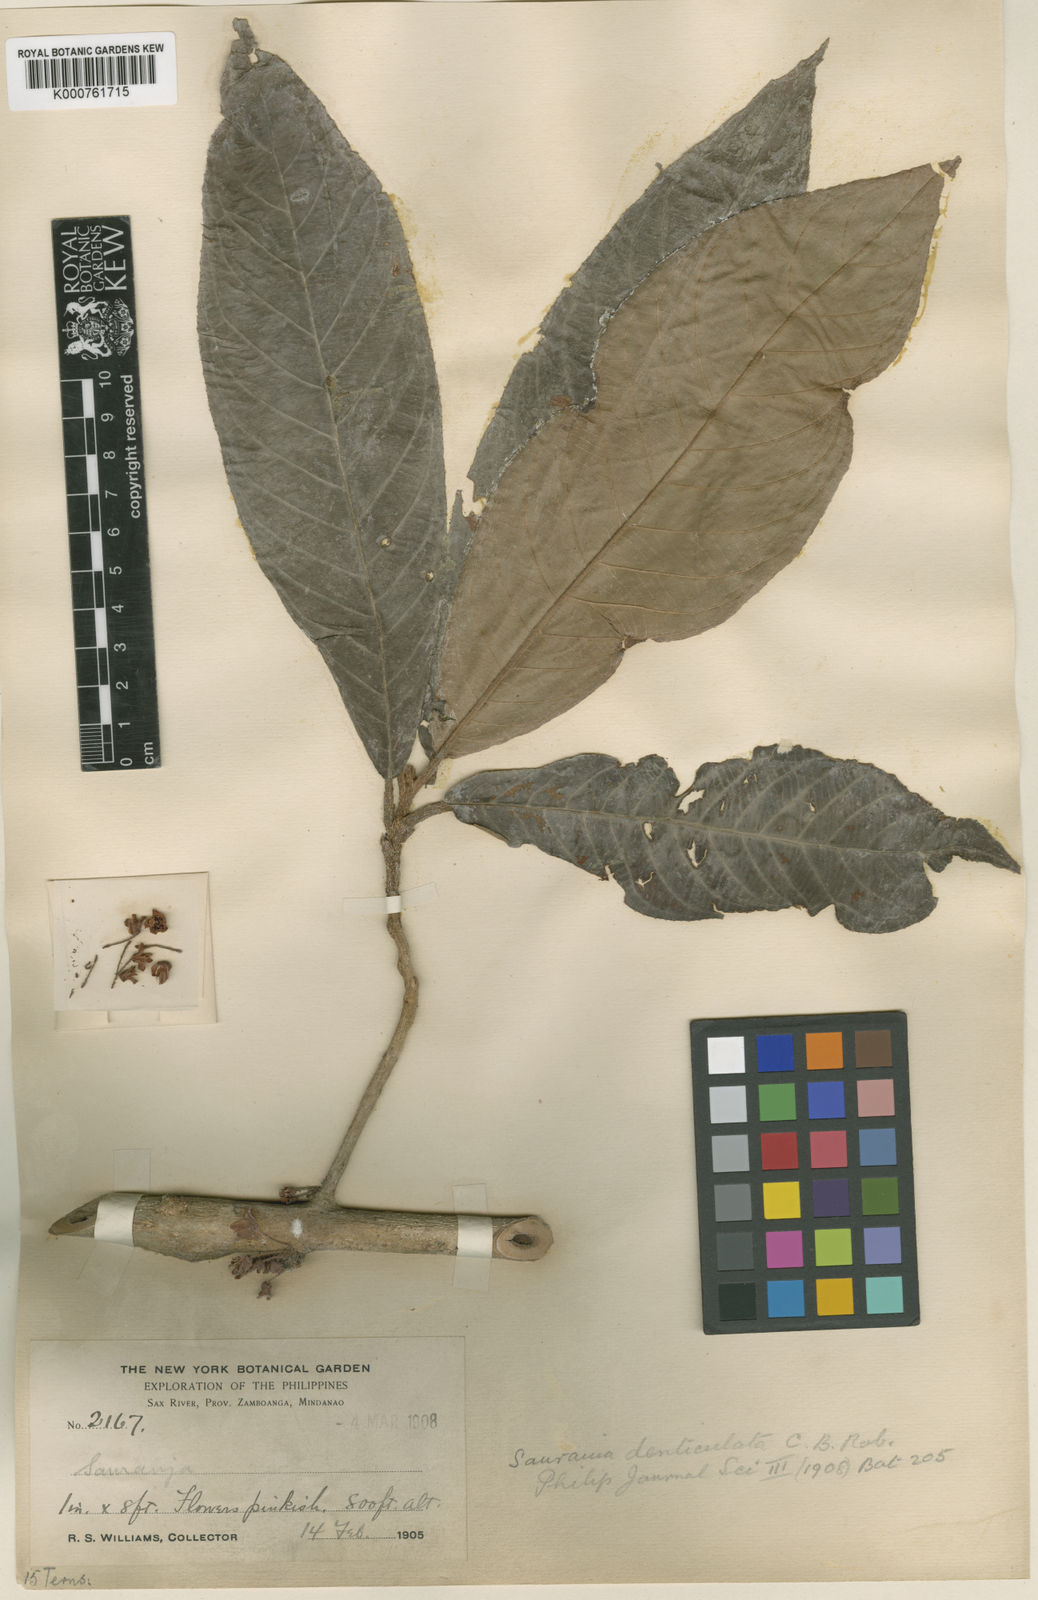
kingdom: Plantae
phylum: Tracheophyta
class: Magnoliopsida
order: Ericales
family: Actinidiaceae
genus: Saurauia
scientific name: Saurauia denticulata
